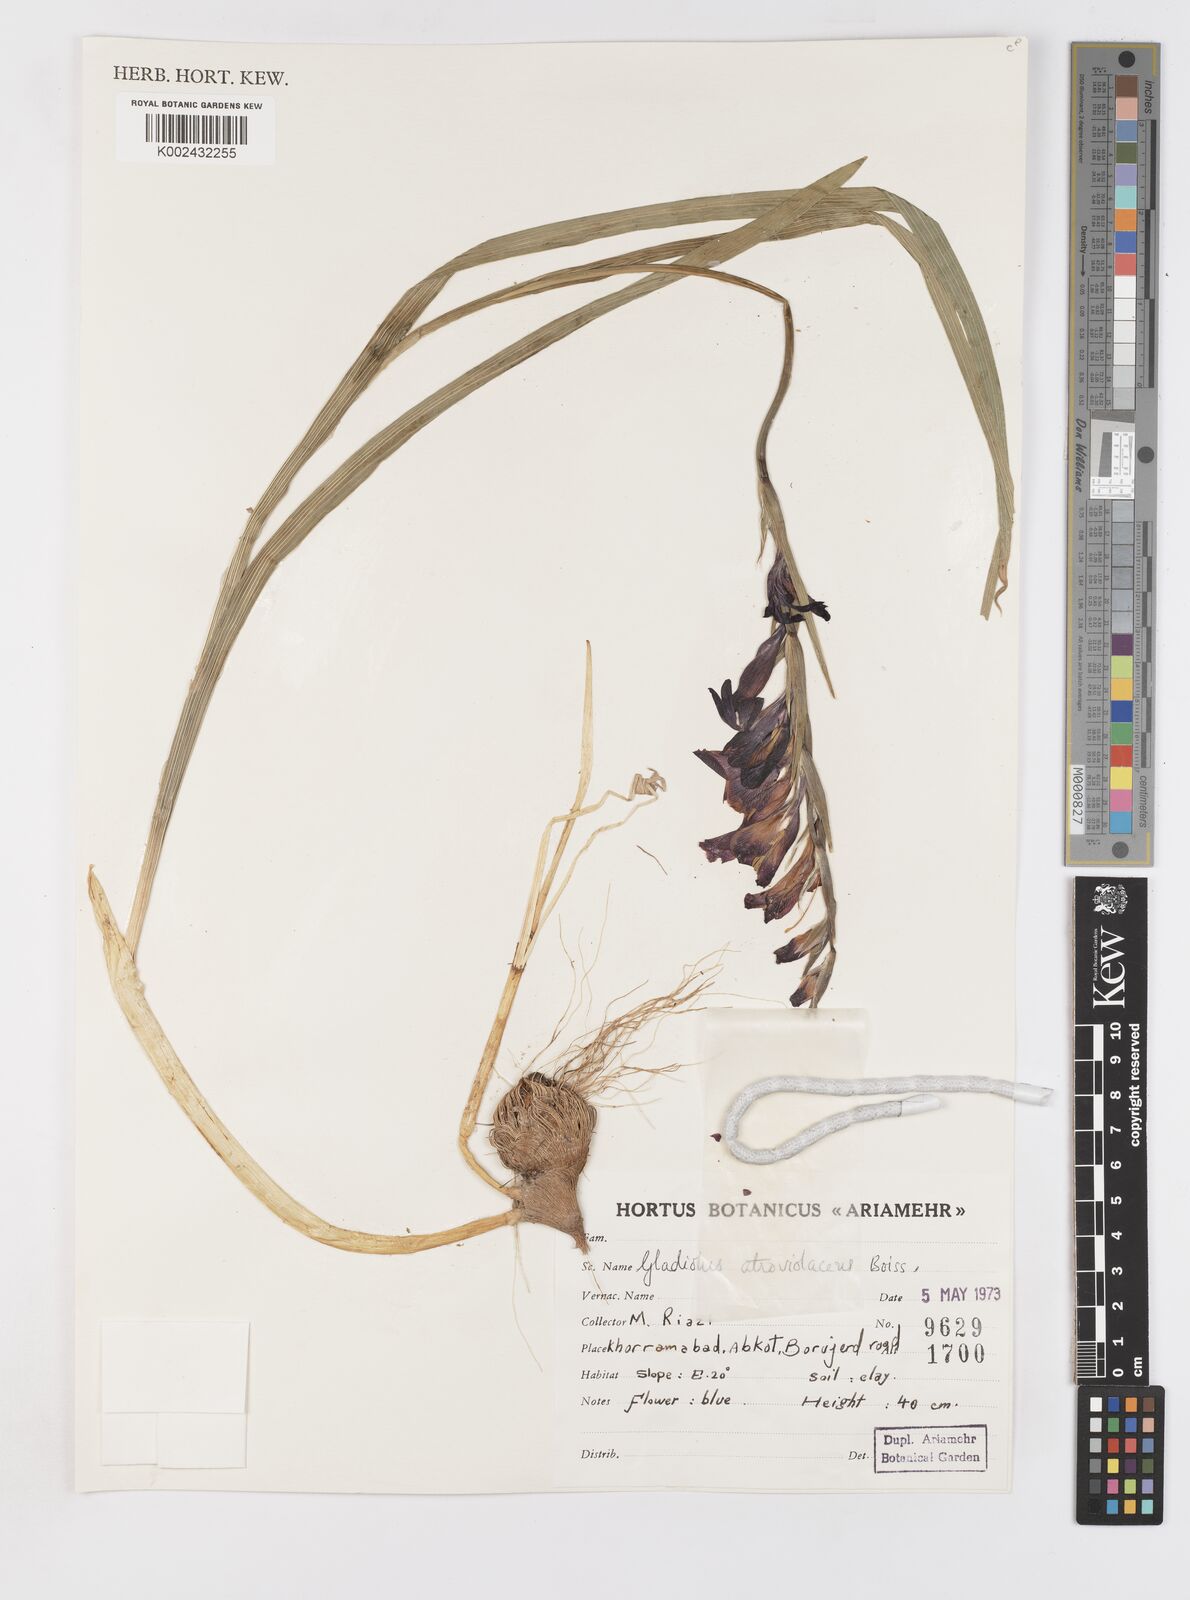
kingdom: Plantae
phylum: Tracheophyta
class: Liliopsida
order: Asparagales
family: Iridaceae
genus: Gladiolus
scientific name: Gladiolus atroviolaceus
